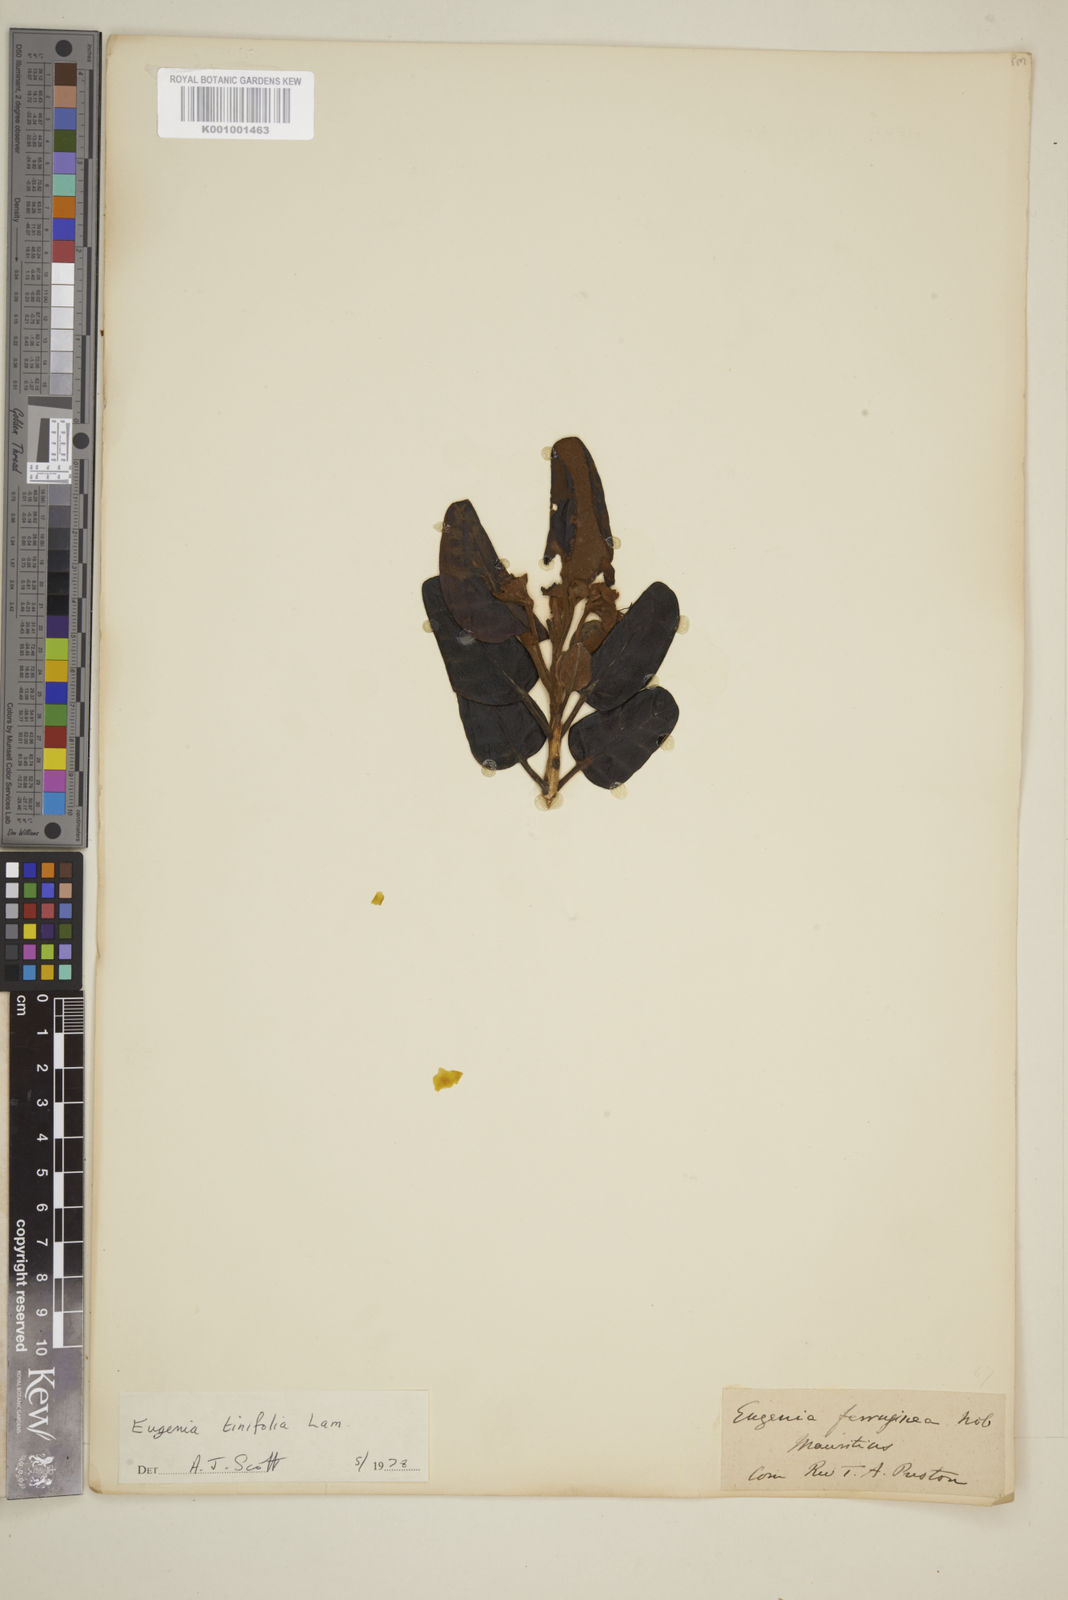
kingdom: Plantae
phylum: Tracheophyta
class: Magnoliopsida
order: Myrtales
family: Myrtaceae
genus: Eugenia
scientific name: Eugenia tinifolia
